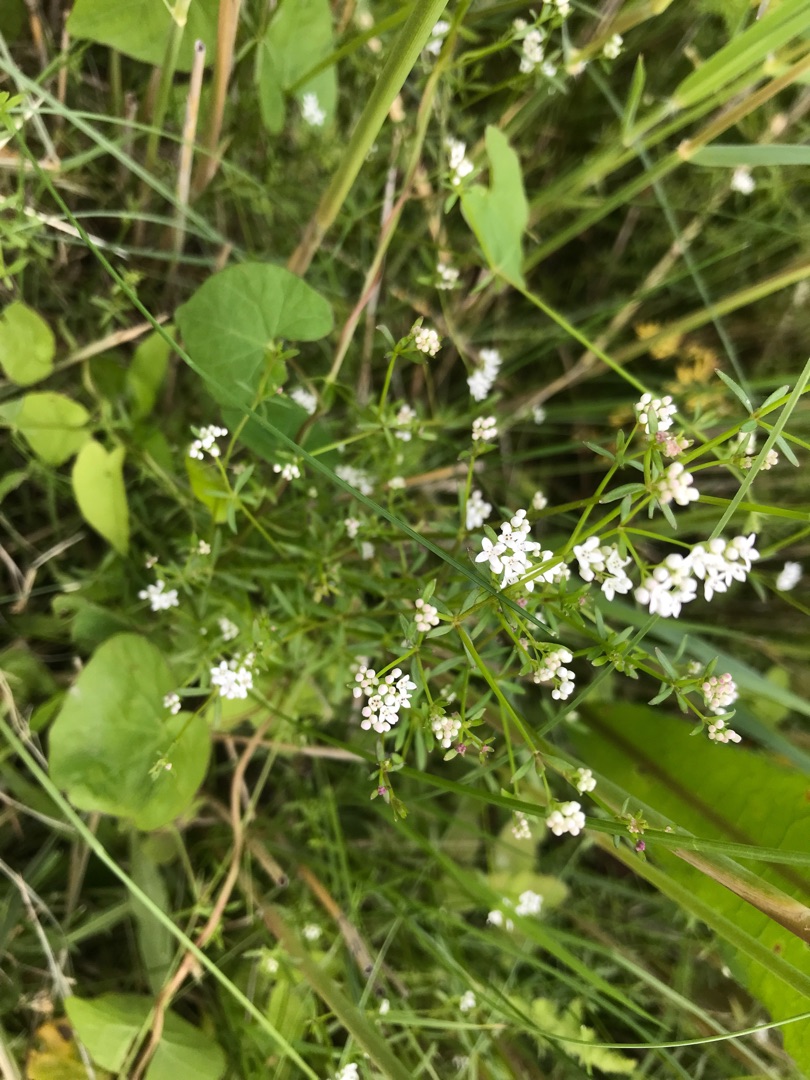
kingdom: Plantae
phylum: Tracheophyta
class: Magnoliopsida
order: Gentianales
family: Rubiaceae
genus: Galium
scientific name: Galium palustre
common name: Kær-snerre
